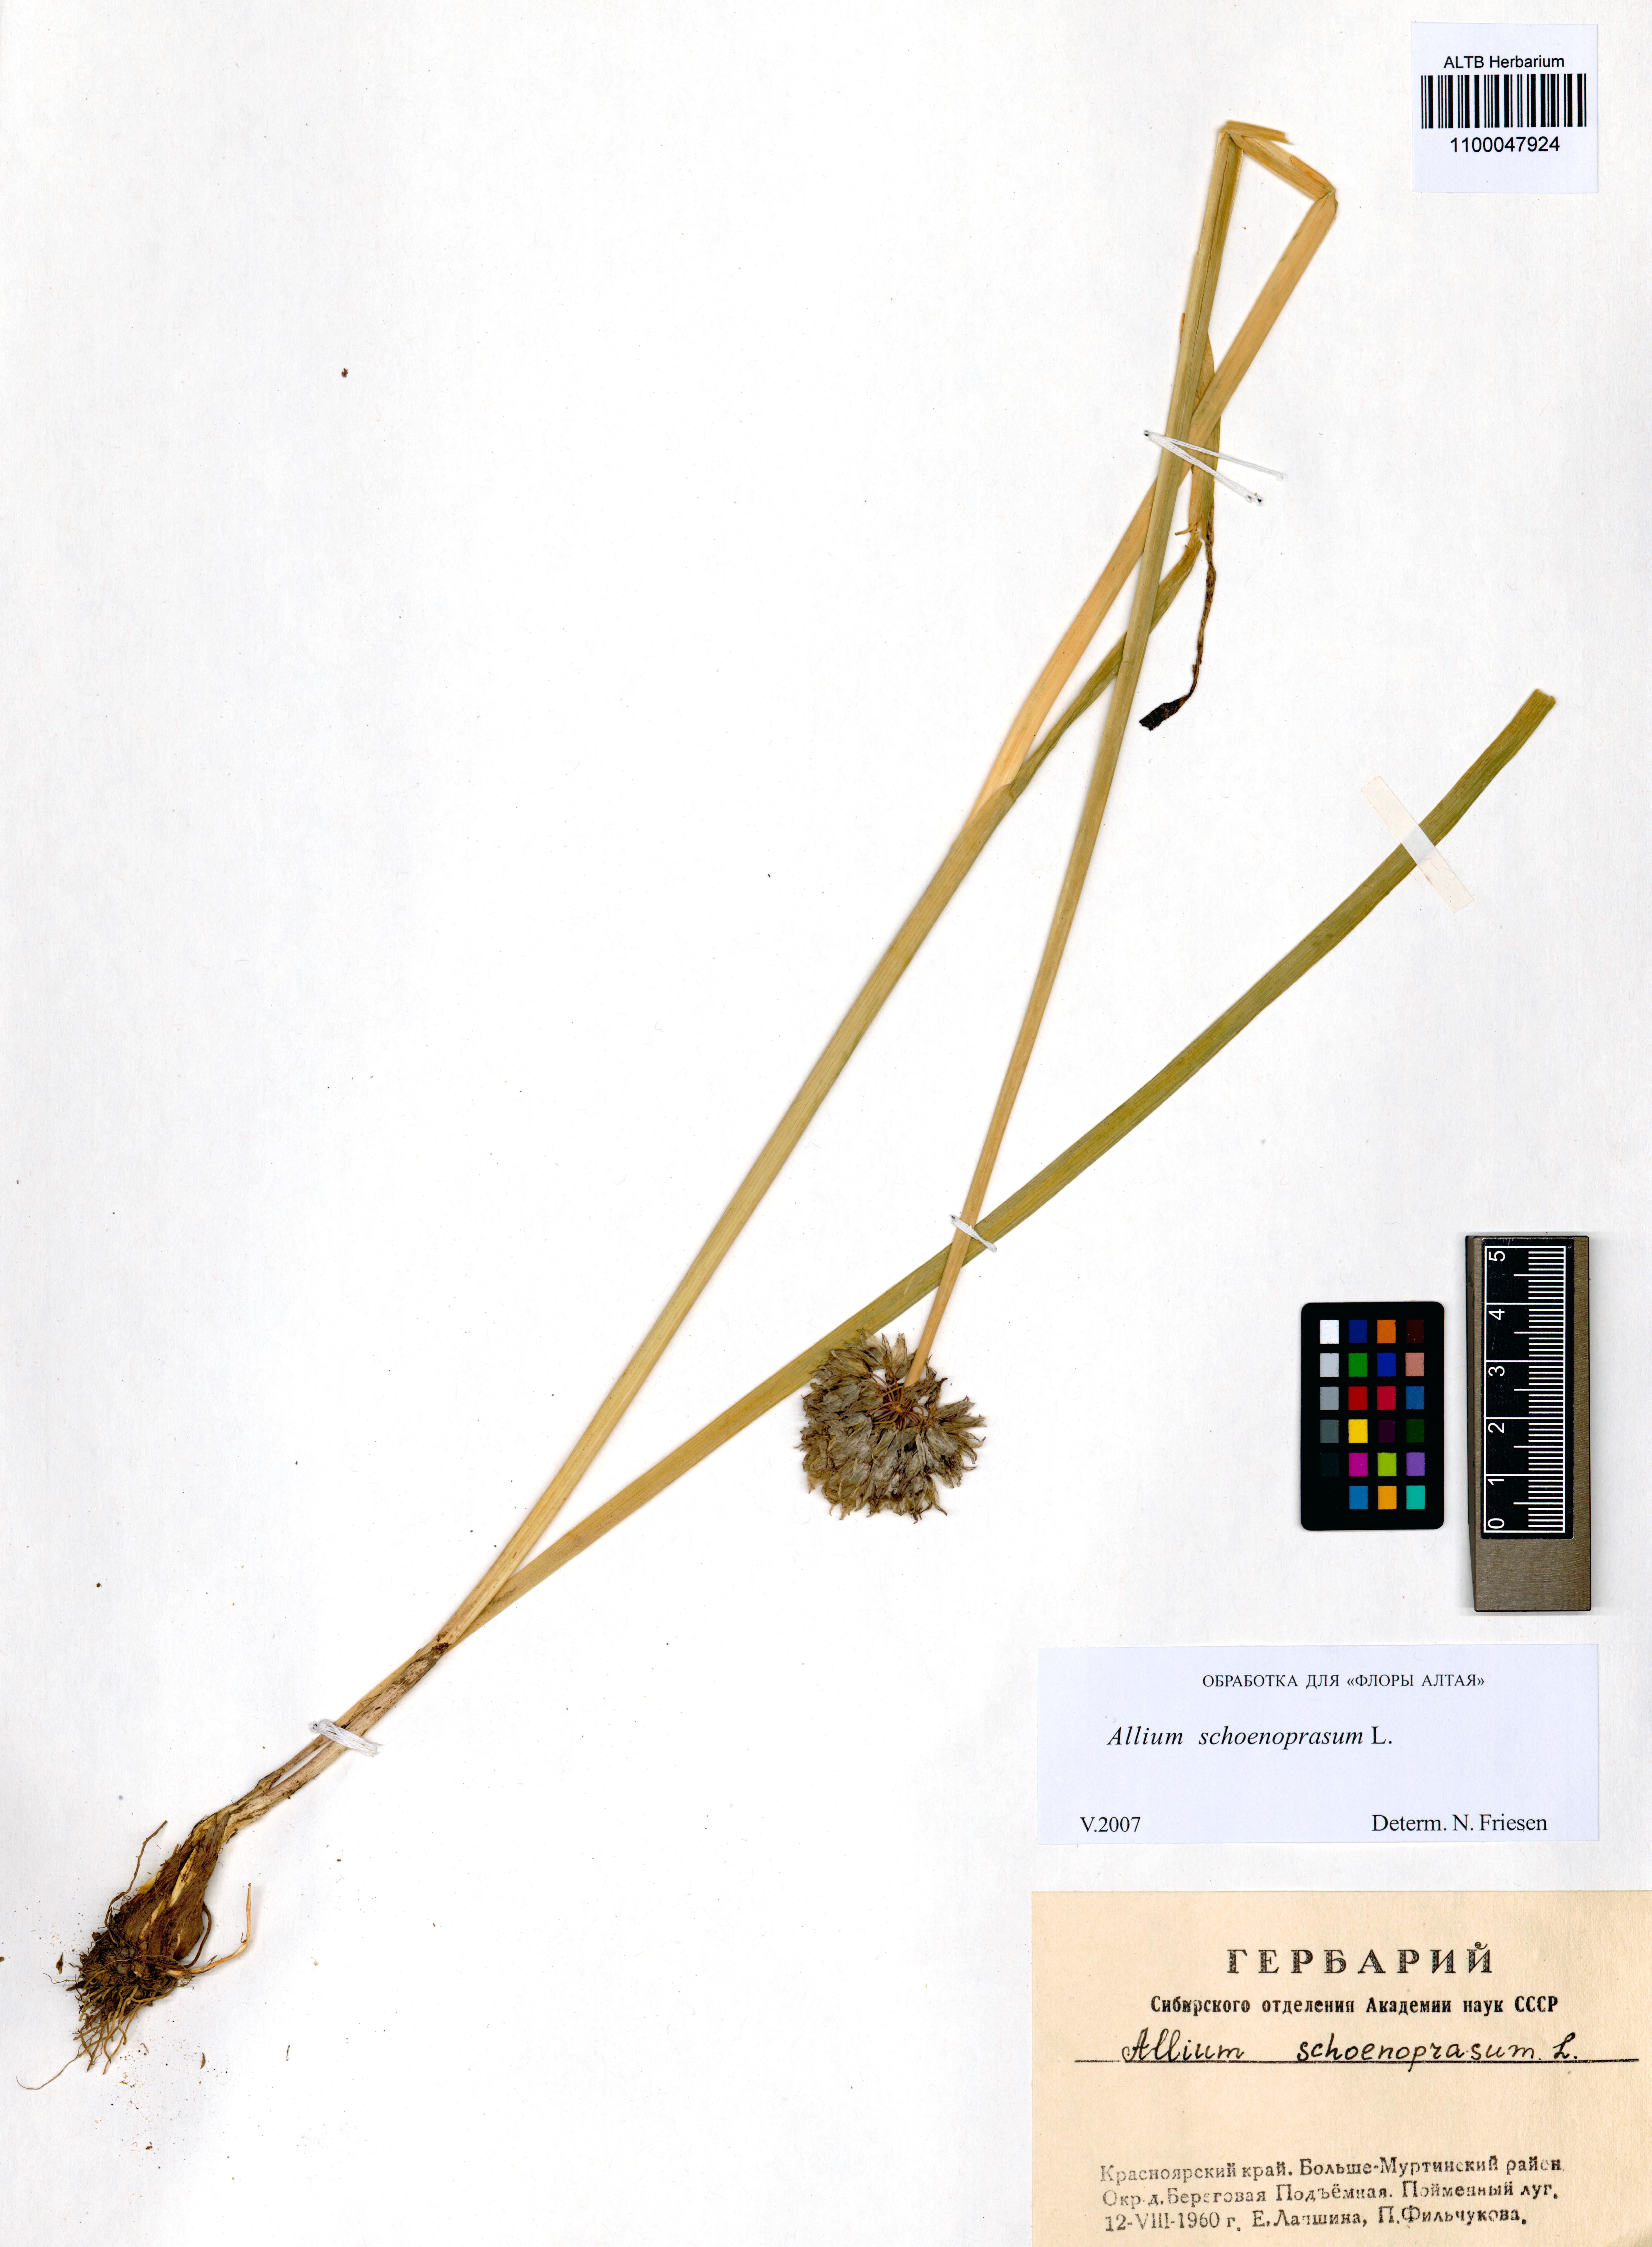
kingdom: Plantae
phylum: Tracheophyta
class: Liliopsida
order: Asparagales
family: Amaryllidaceae
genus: Allium
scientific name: Allium schoenoprasum
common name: Chives
